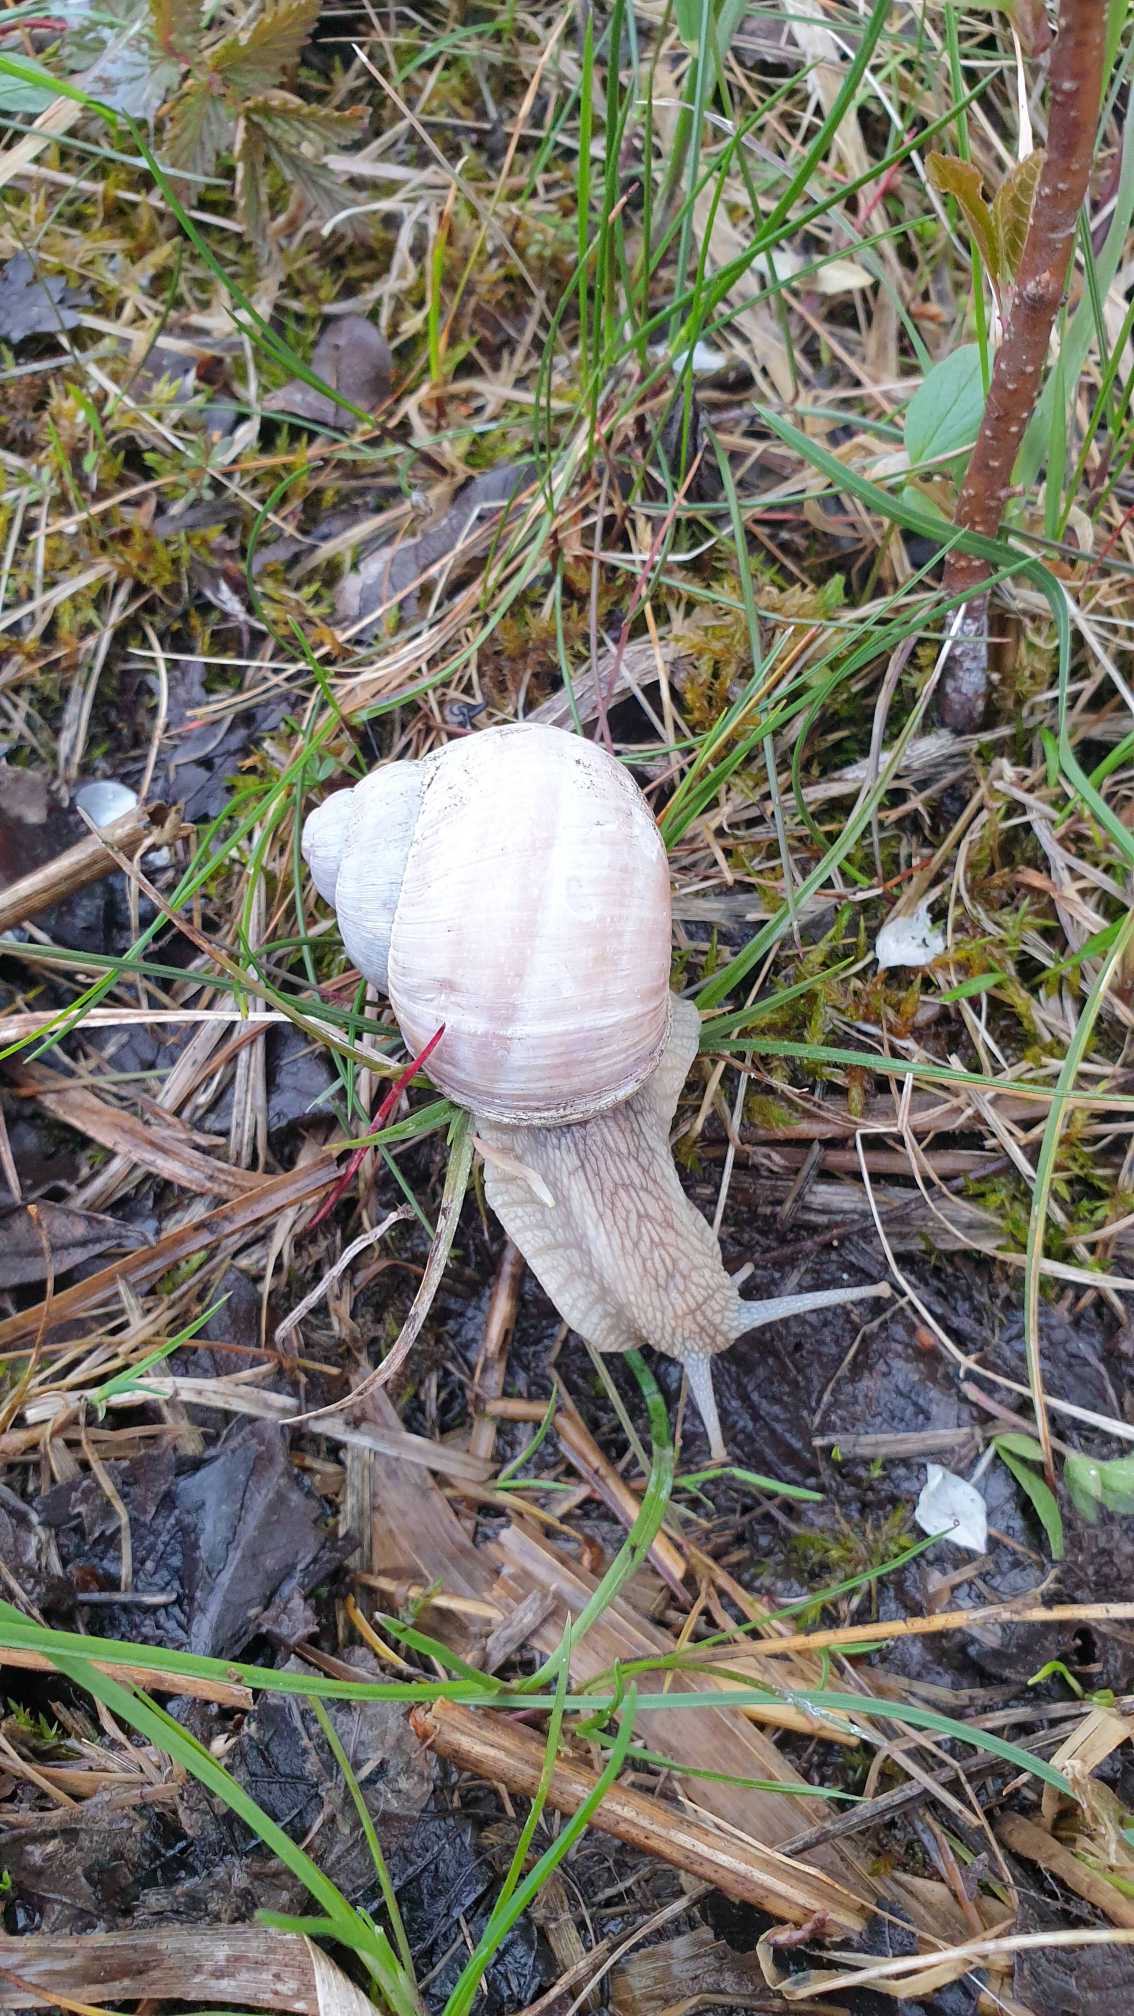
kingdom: Animalia
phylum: Mollusca
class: Gastropoda
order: Stylommatophora
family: Helicidae
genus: Helix
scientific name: Helix pomatia
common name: Vinbjergsnegl
